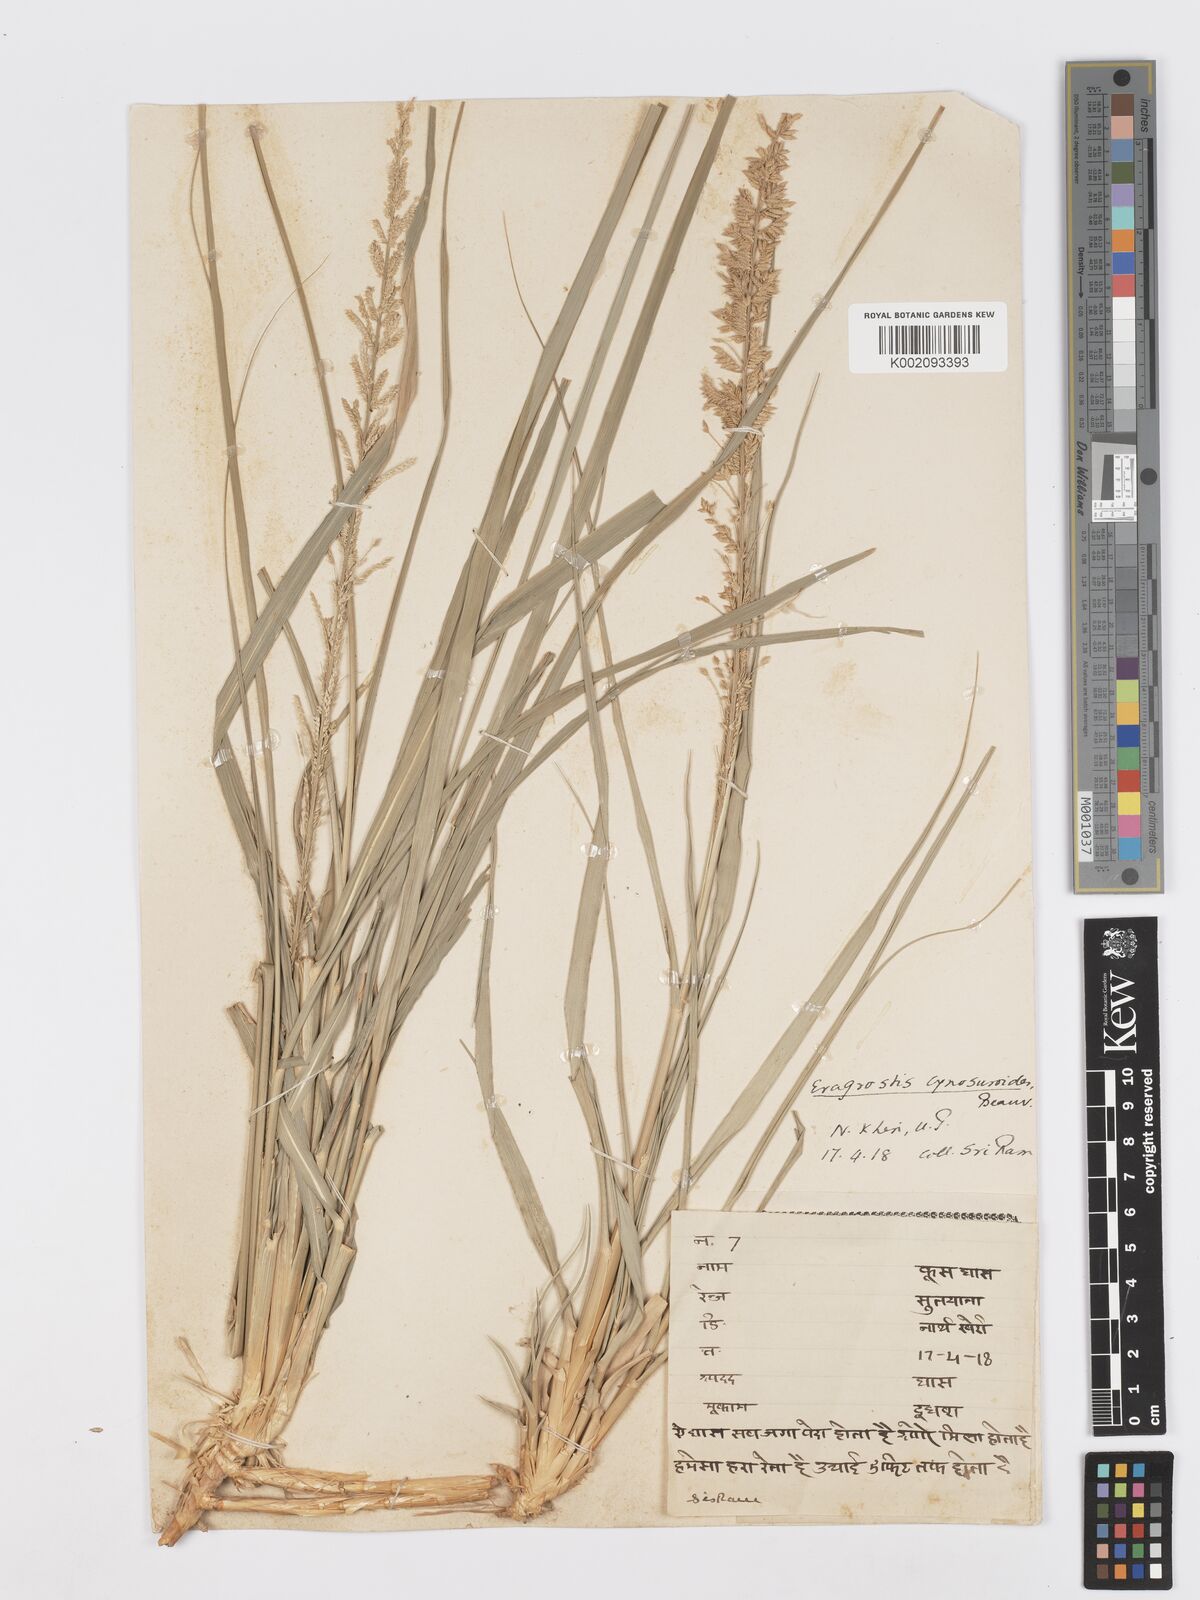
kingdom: Plantae
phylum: Tracheophyta
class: Liliopsida
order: Poales
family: Poaceae
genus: Desmostachya
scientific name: Desmostachya bipinnata
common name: Crowfoot grass
